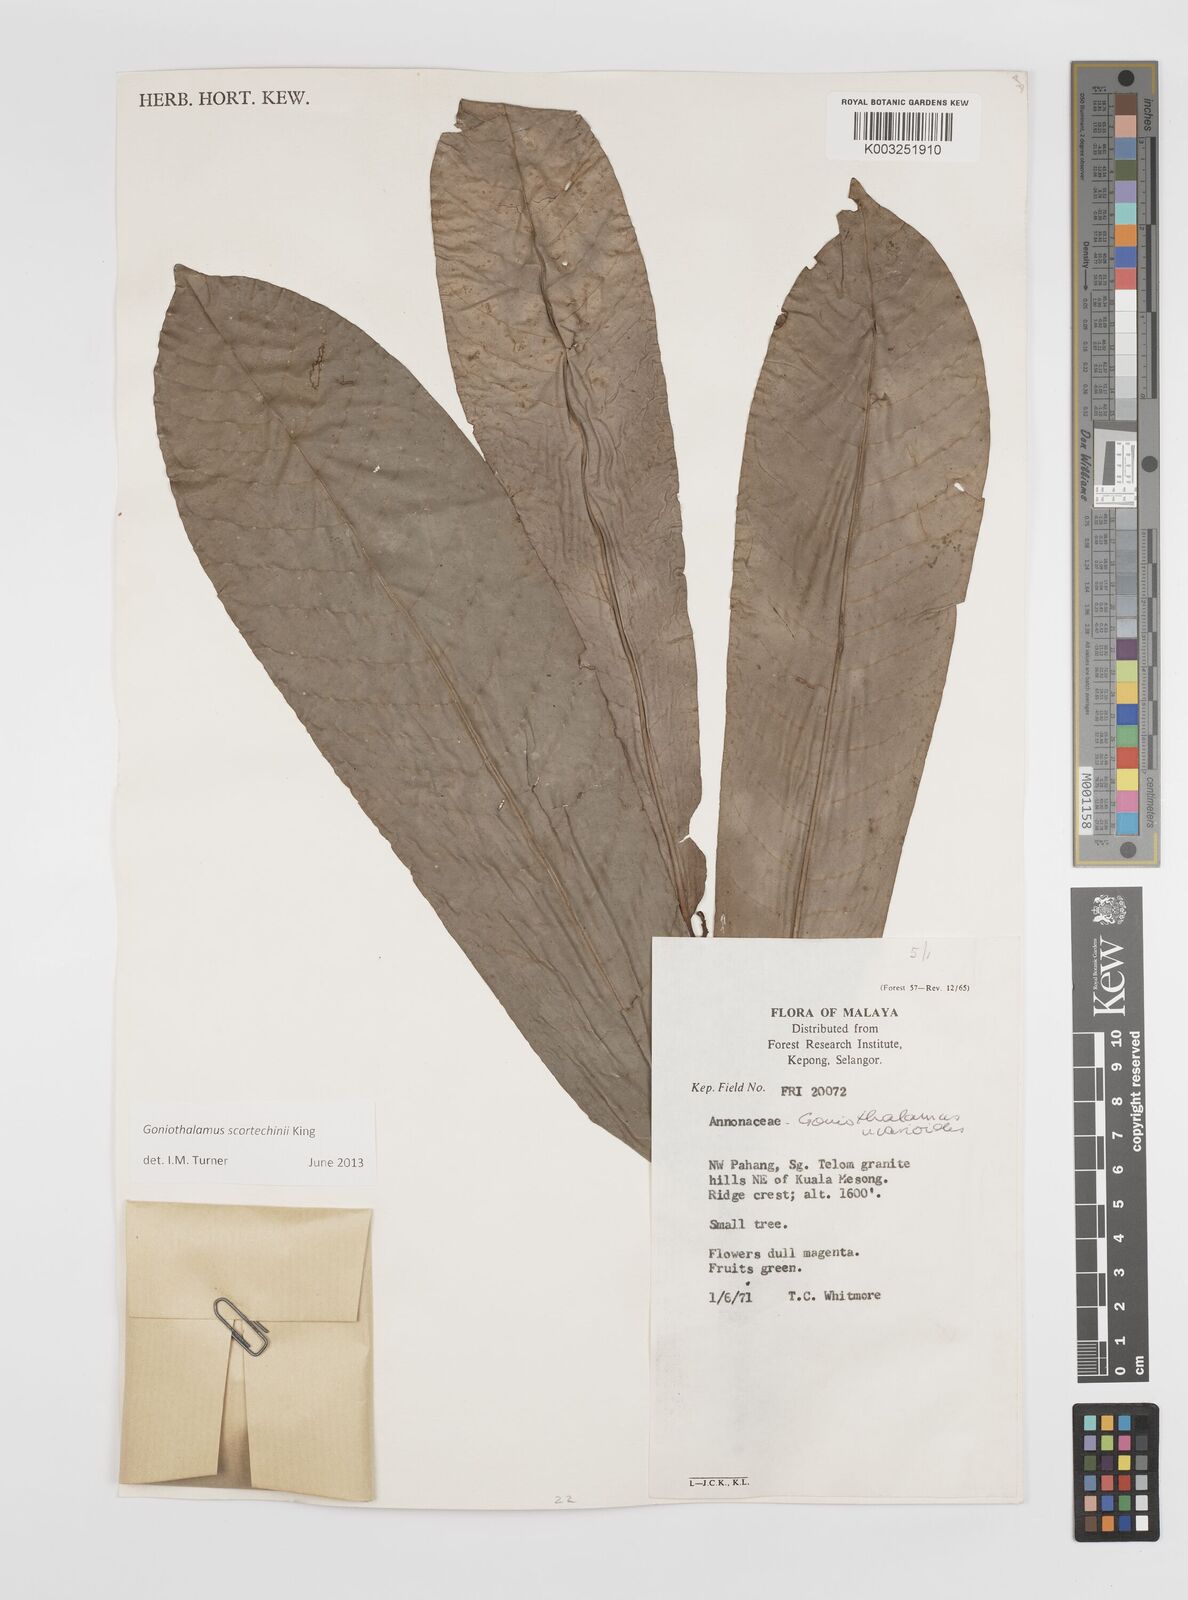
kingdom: Plantae
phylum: Tracheophyta
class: Magnoliopsida
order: Magnoliales
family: Annonaceae
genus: Goniothalamus
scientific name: Goniothalamus scortechinii
